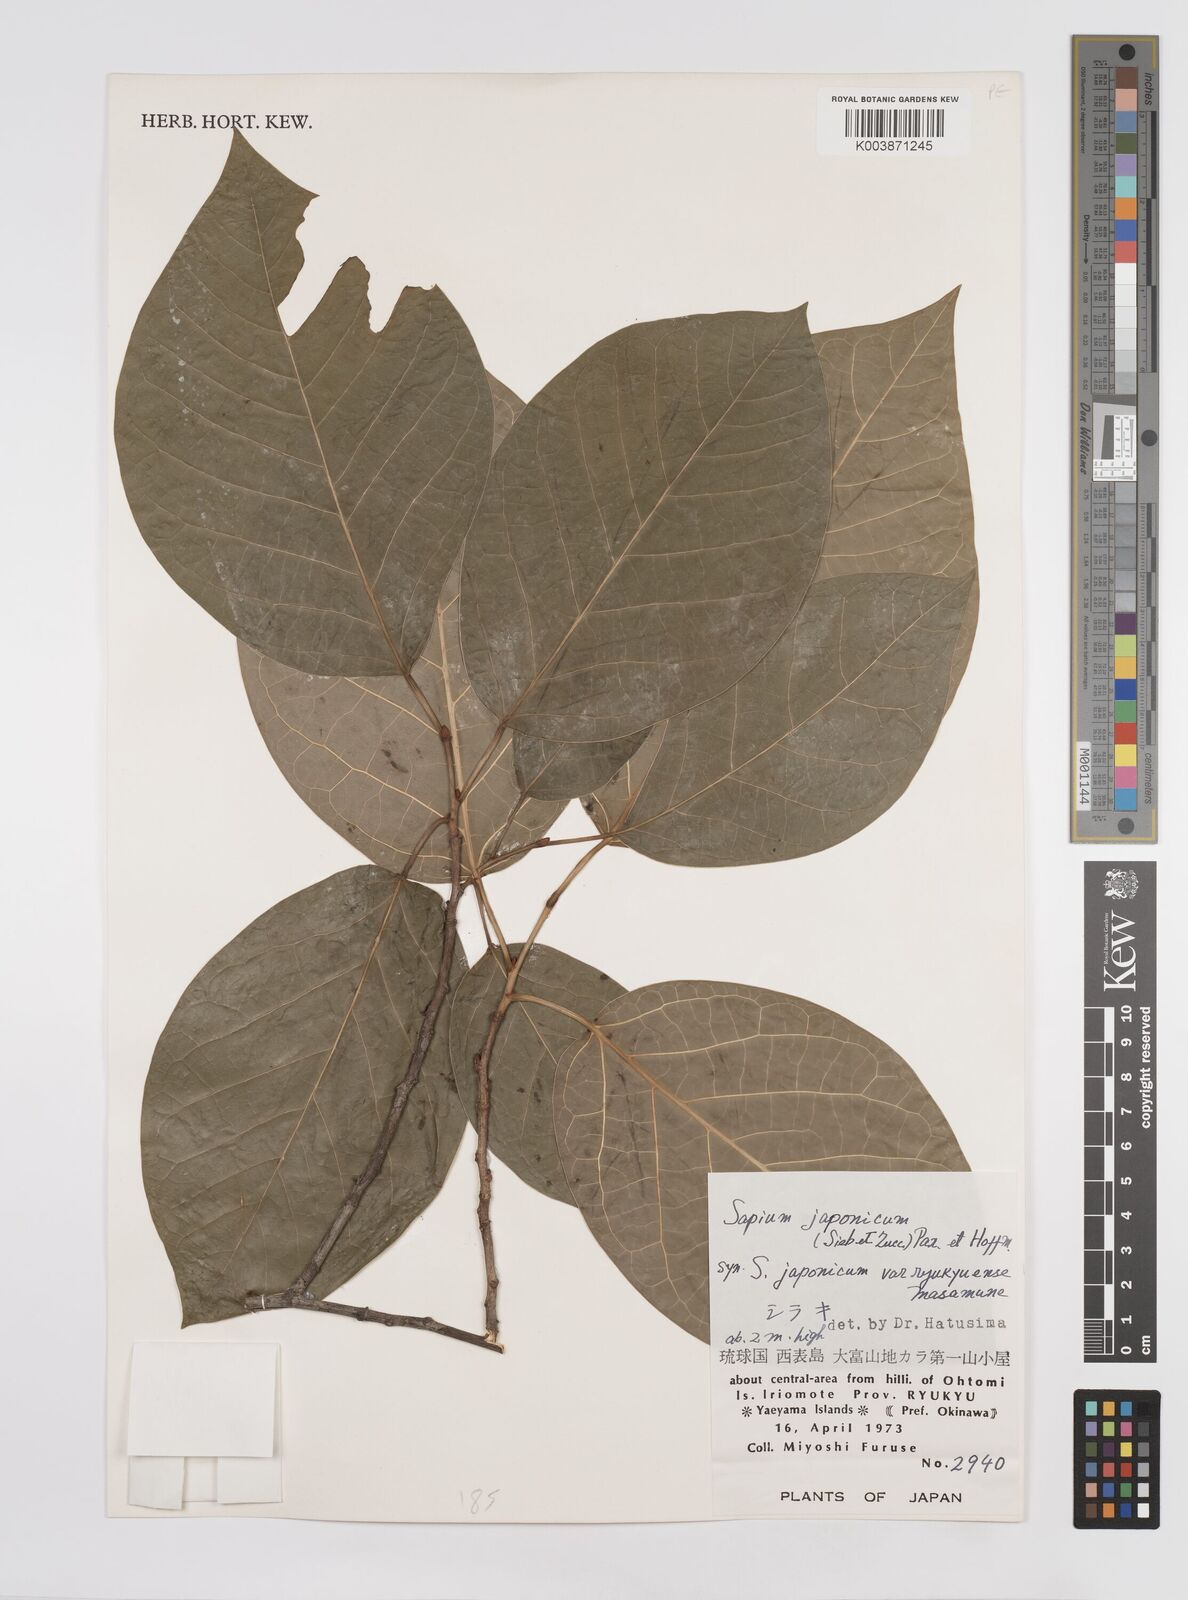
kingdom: Plantae
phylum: Tracheophyta
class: Magnoliopsida
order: Malpighiales
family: Euphorbiaceae
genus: Neoshirakia
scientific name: Neoshirakia japonica
